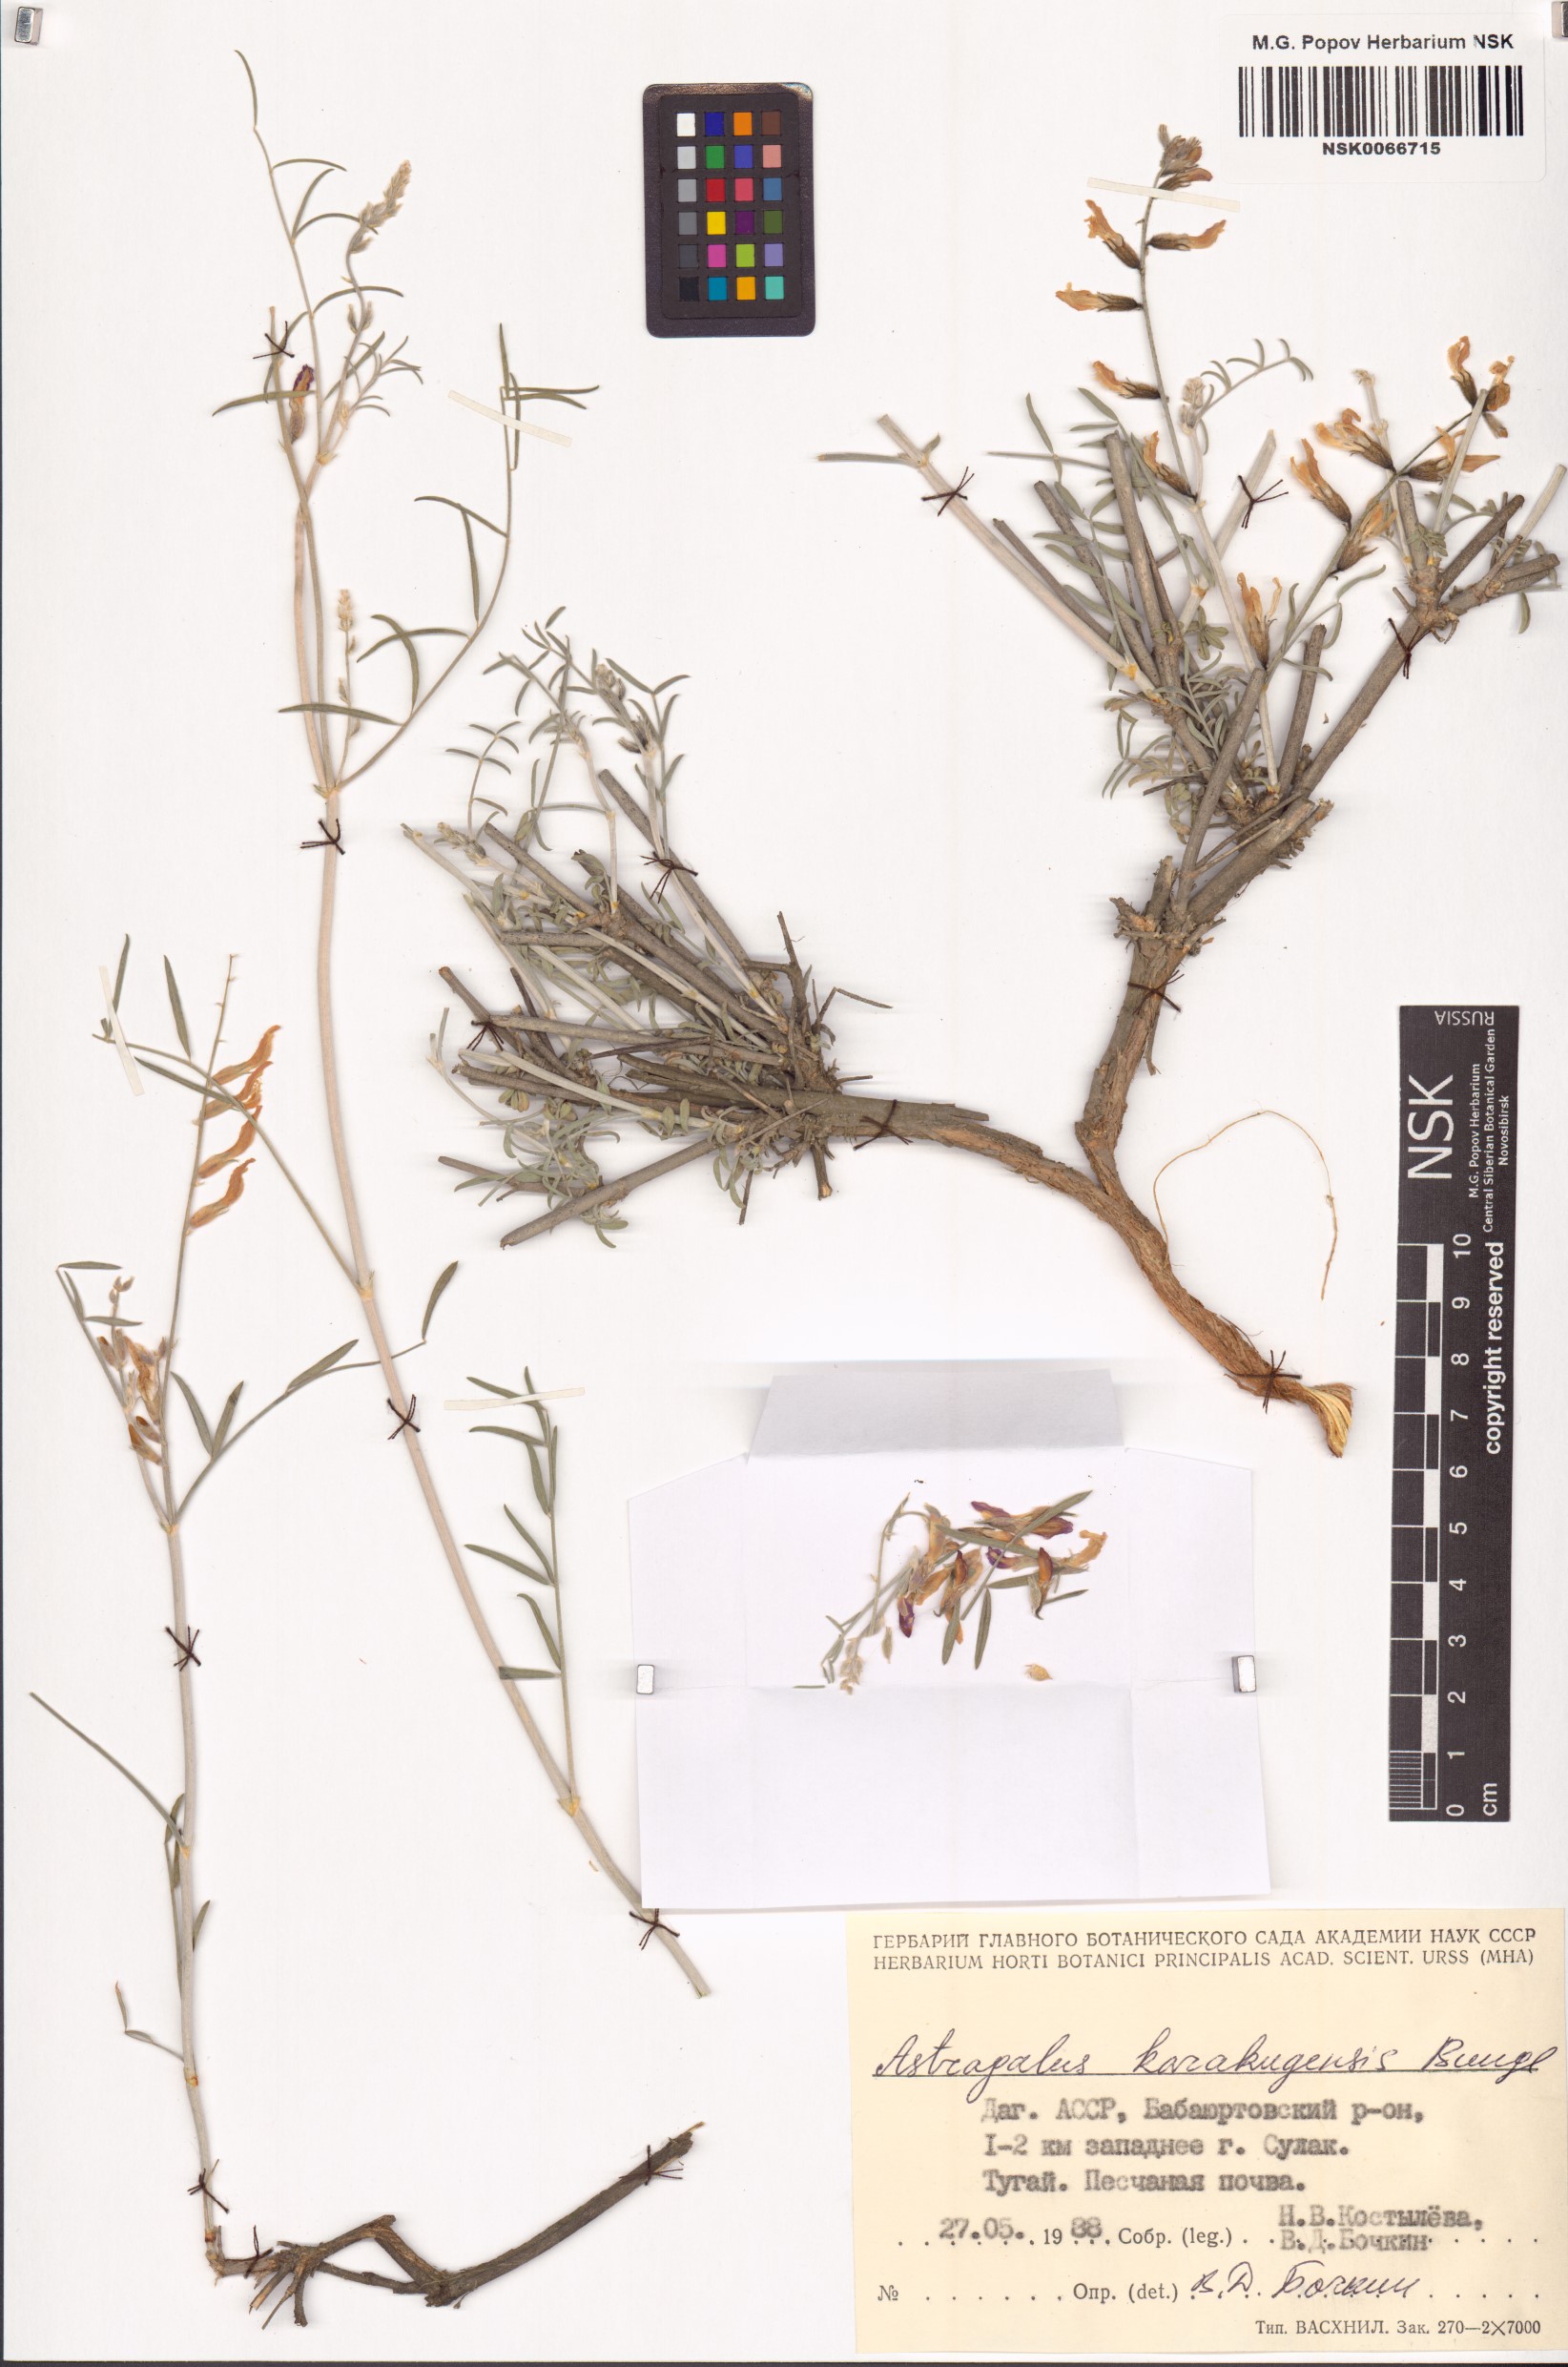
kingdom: Plantae
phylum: Tracheophyta
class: Magnoliopsida
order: Fabales
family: Fabaceae
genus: Astragalus
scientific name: Astragalus karakugensis
